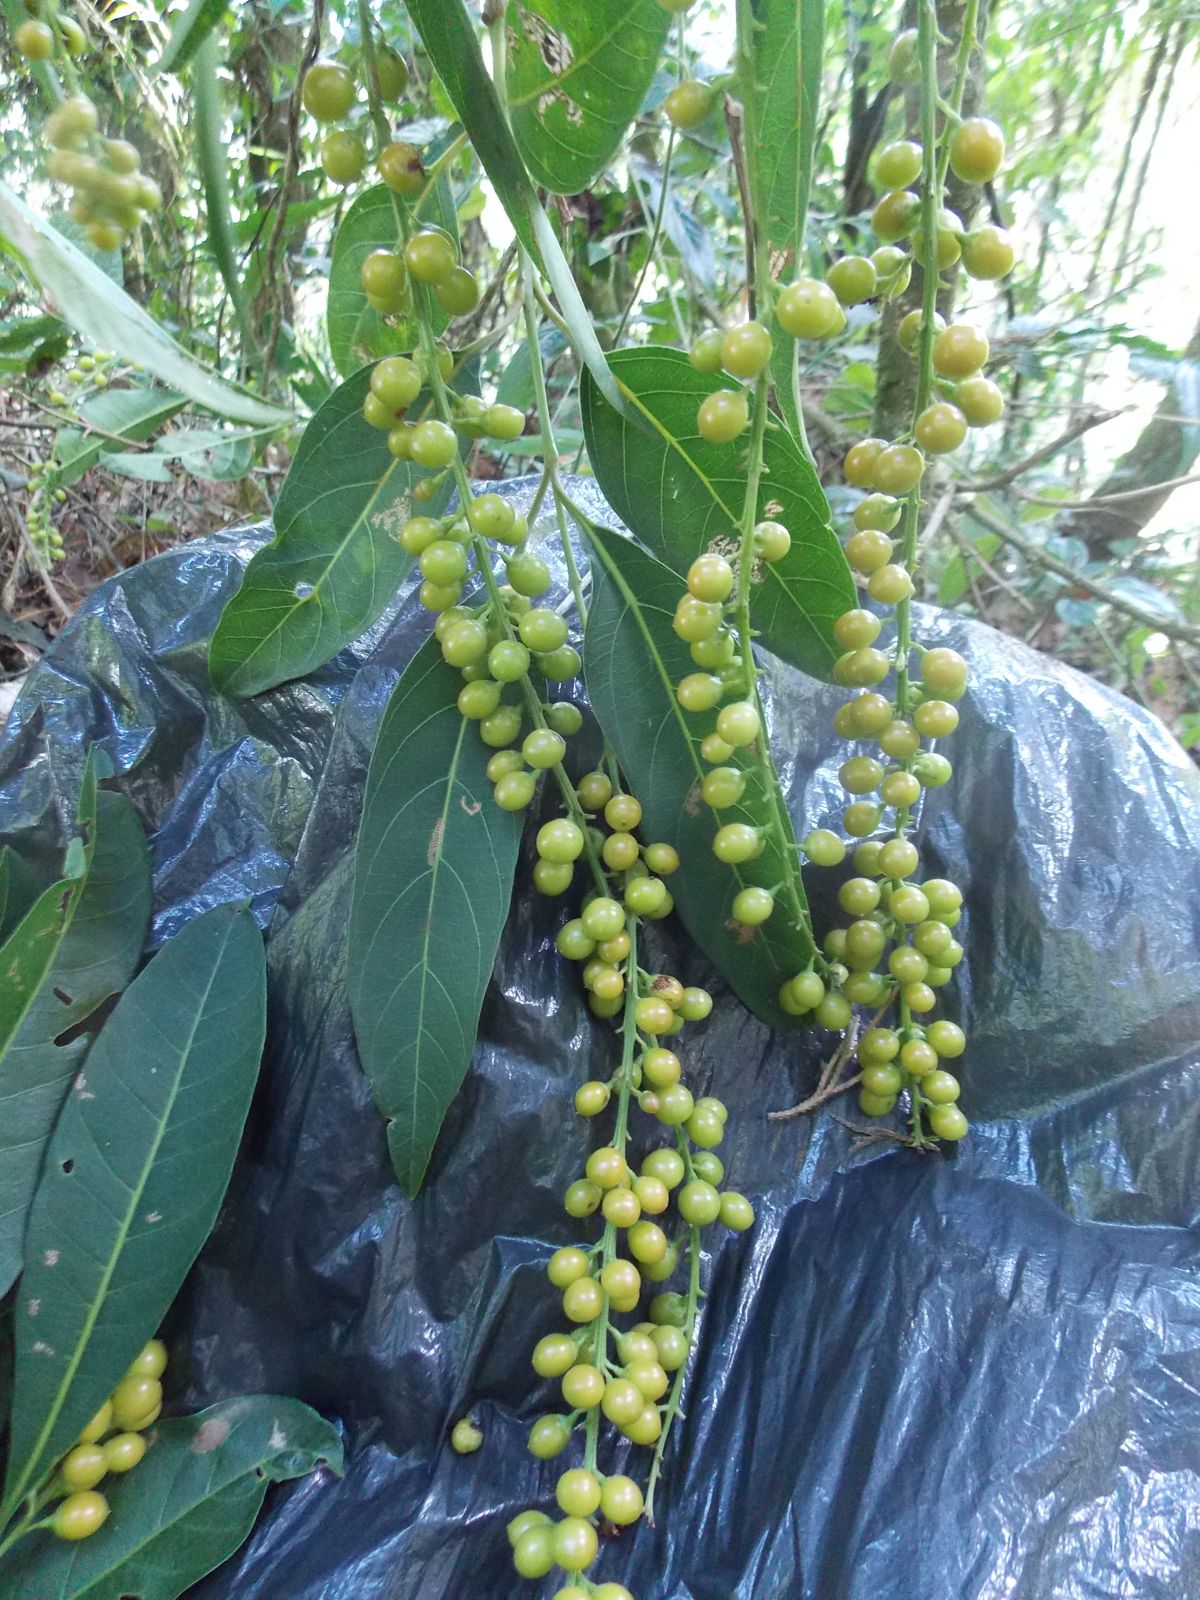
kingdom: Plantae
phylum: Tracheophyta
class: Magnoliopsida
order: Lamiales
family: Verbenaceae
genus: Citharexylum
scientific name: Citharexylum donnell-smithii
